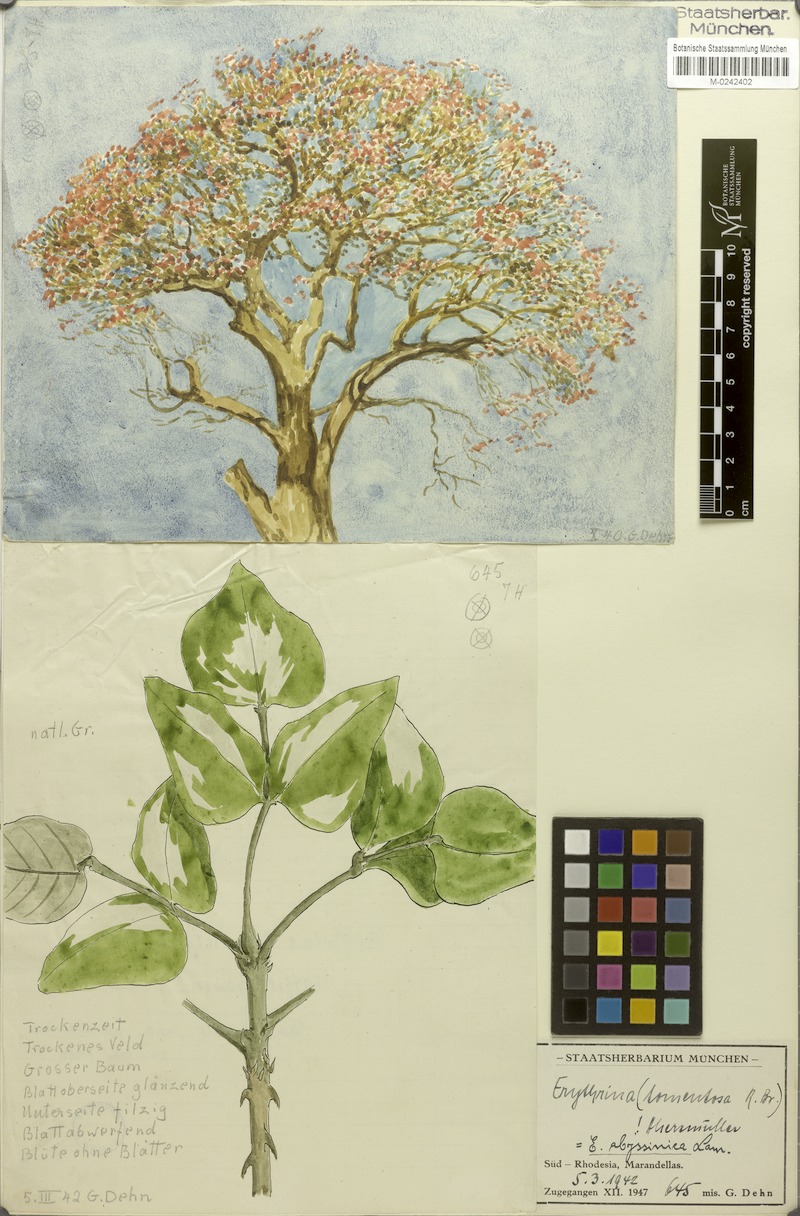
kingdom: Plantae
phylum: Tracheophyta
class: Magnoliopsida
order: Fabales
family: Fabaceae
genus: Erythrina
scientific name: Erythrina abyssinica
